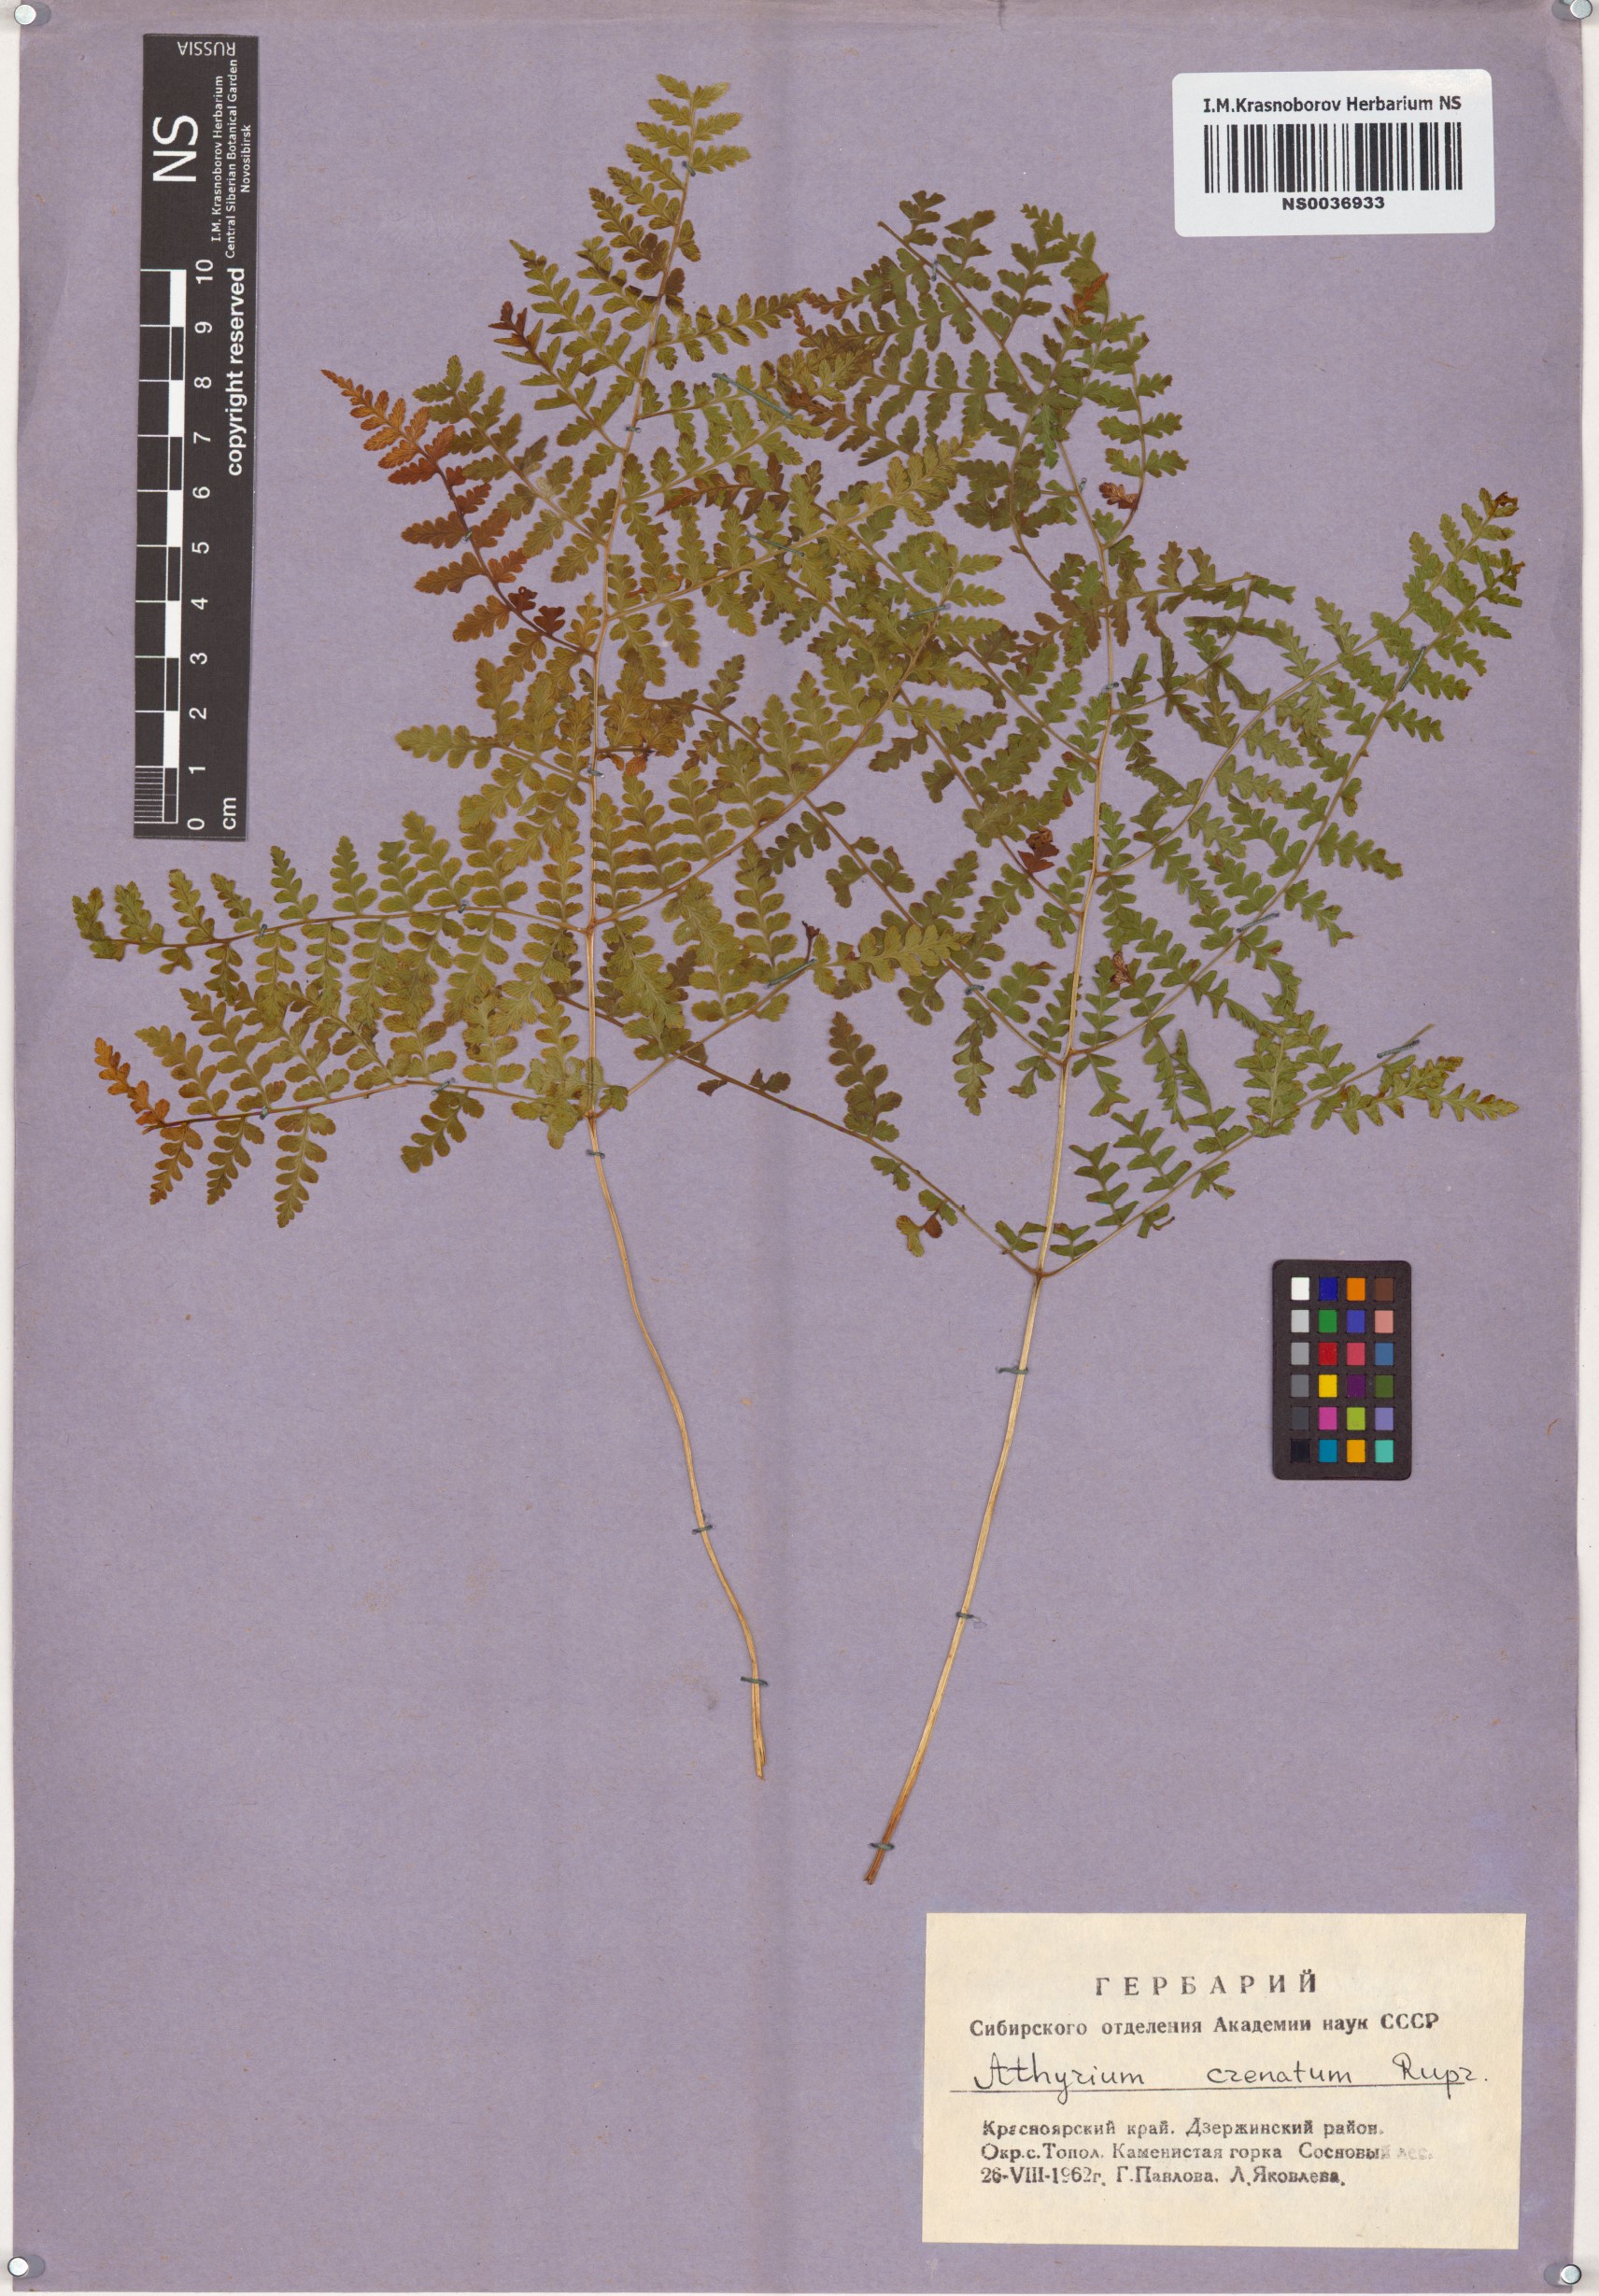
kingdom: Plantae
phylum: Tracheophyta
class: Polypodiopsida
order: Polypodiales
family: Athyriaceae
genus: Diplazium
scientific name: Diplazium sibiricum
